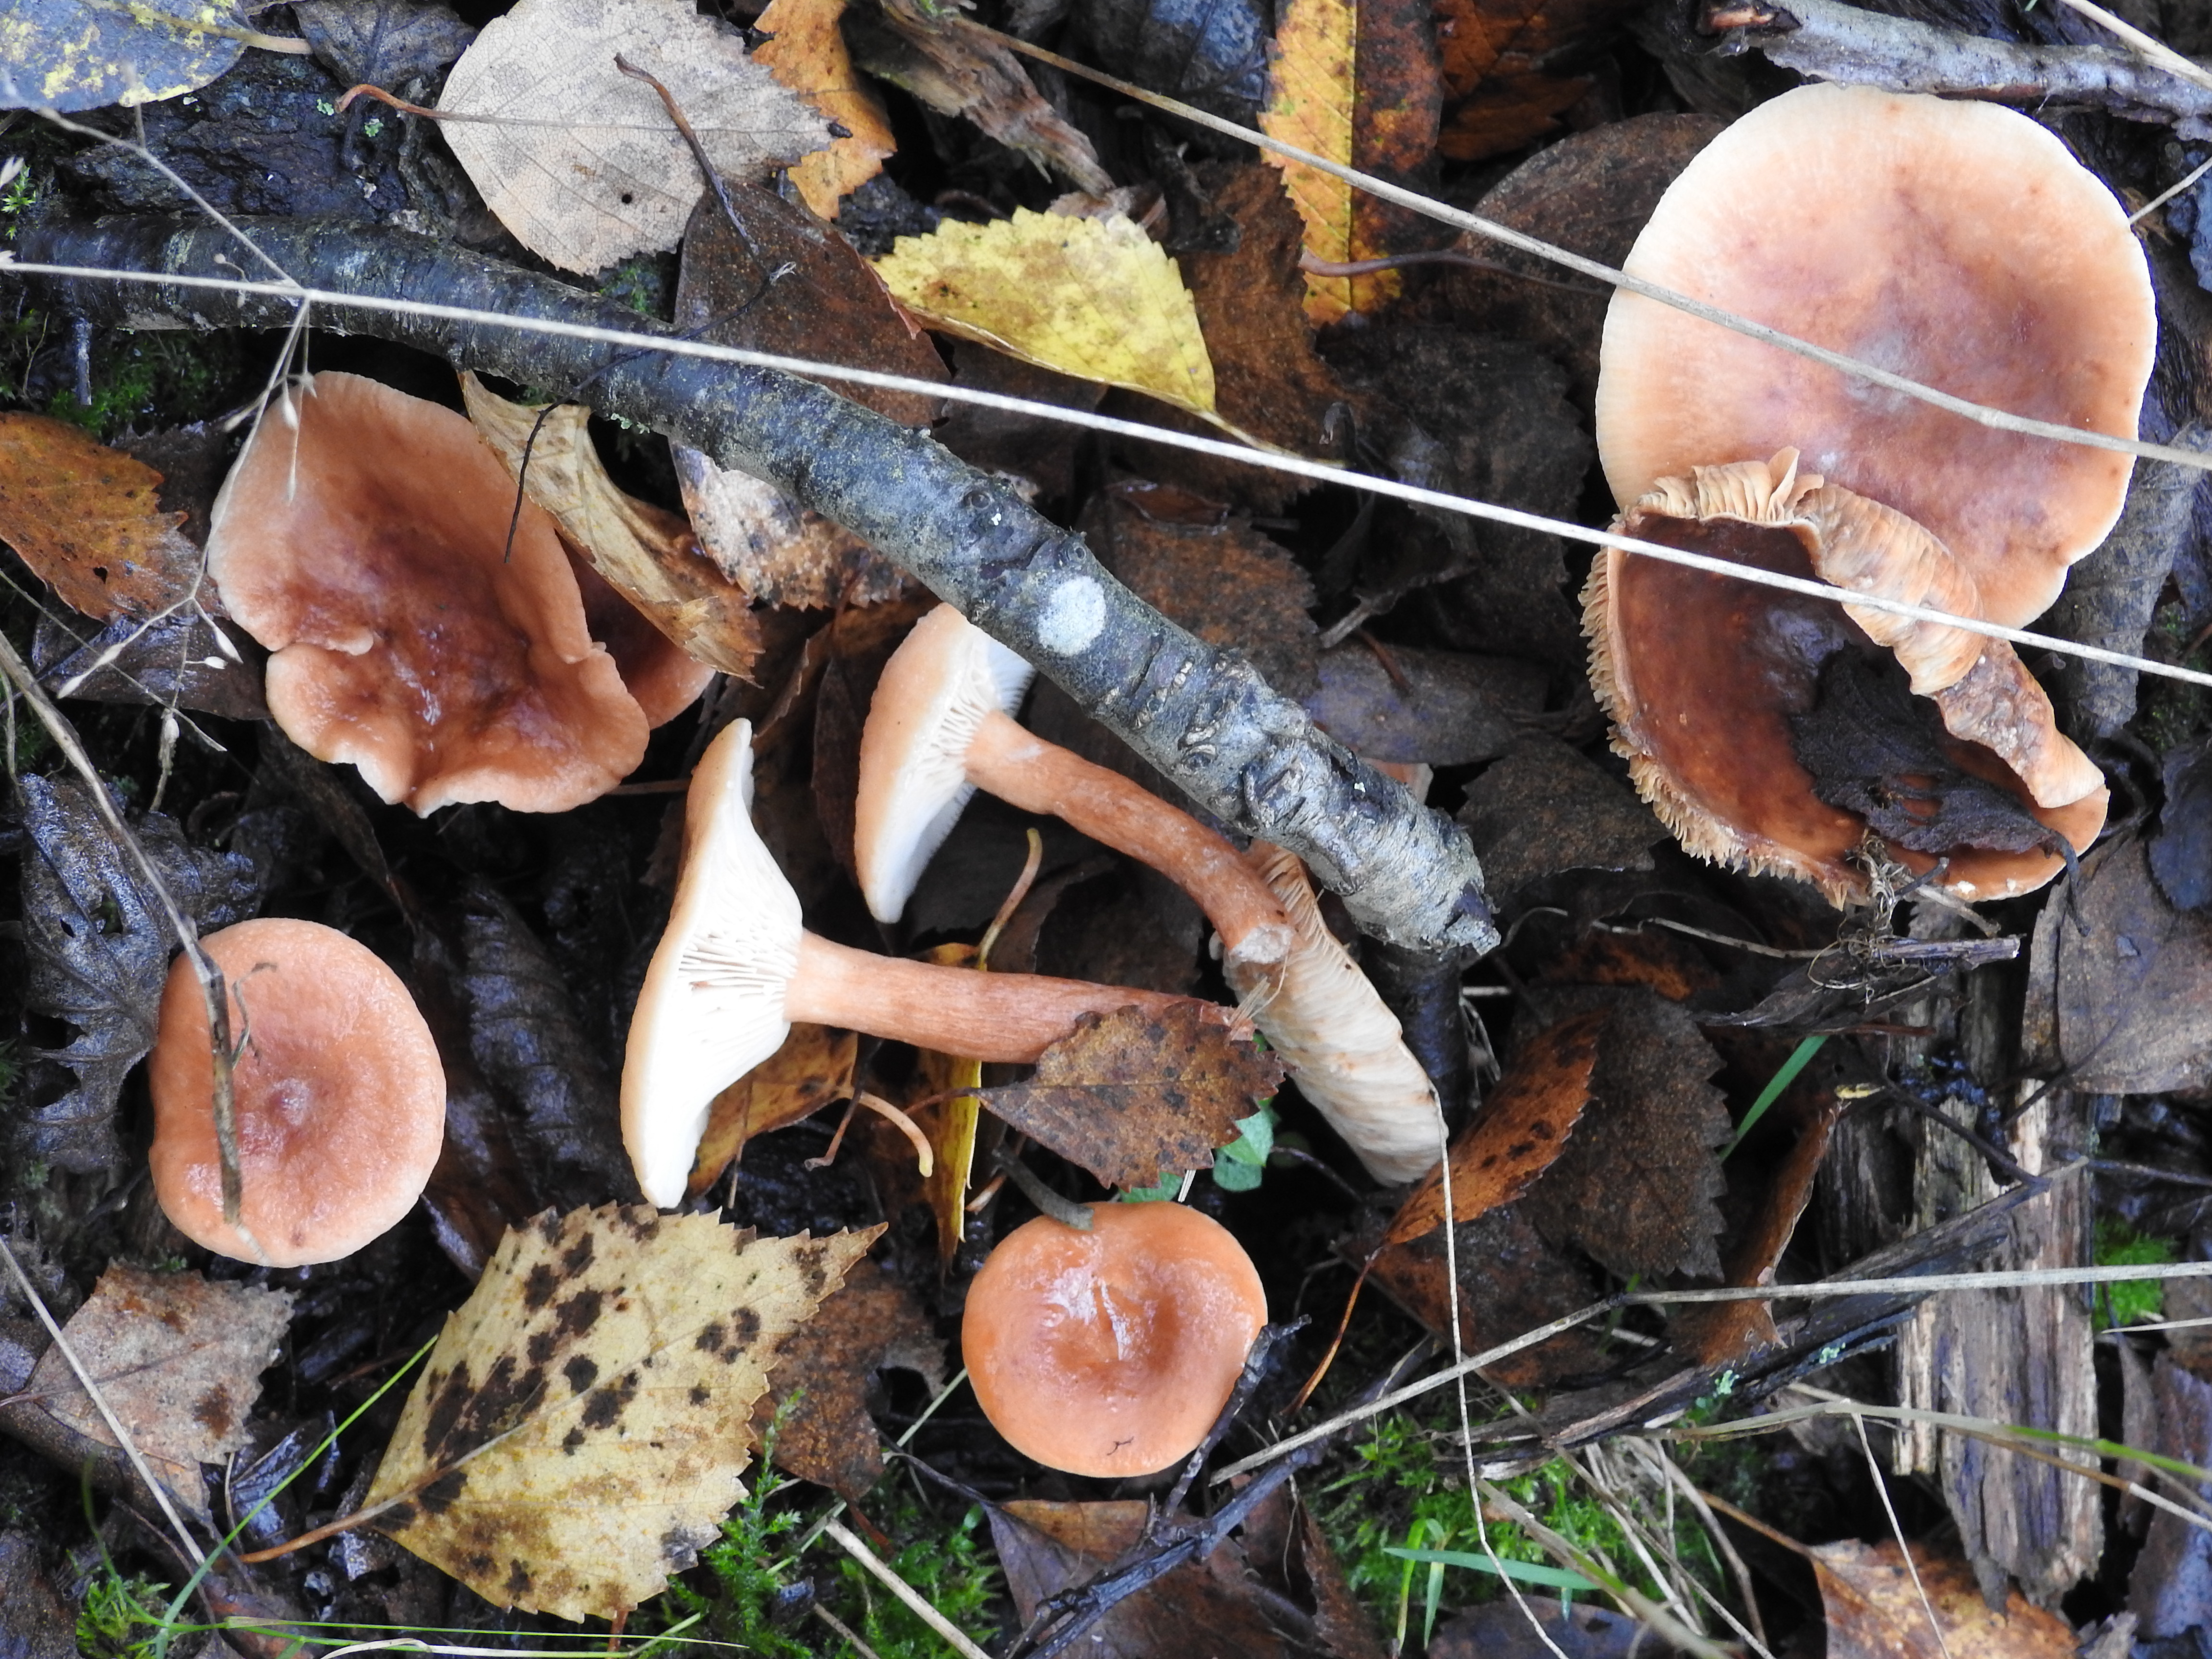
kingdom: Fungi
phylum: Basidiomycota
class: Agaricomycetes
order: Russulales
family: Russulaceae
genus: Lactarius
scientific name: Lactarius tabidus
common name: Birch milkcap
